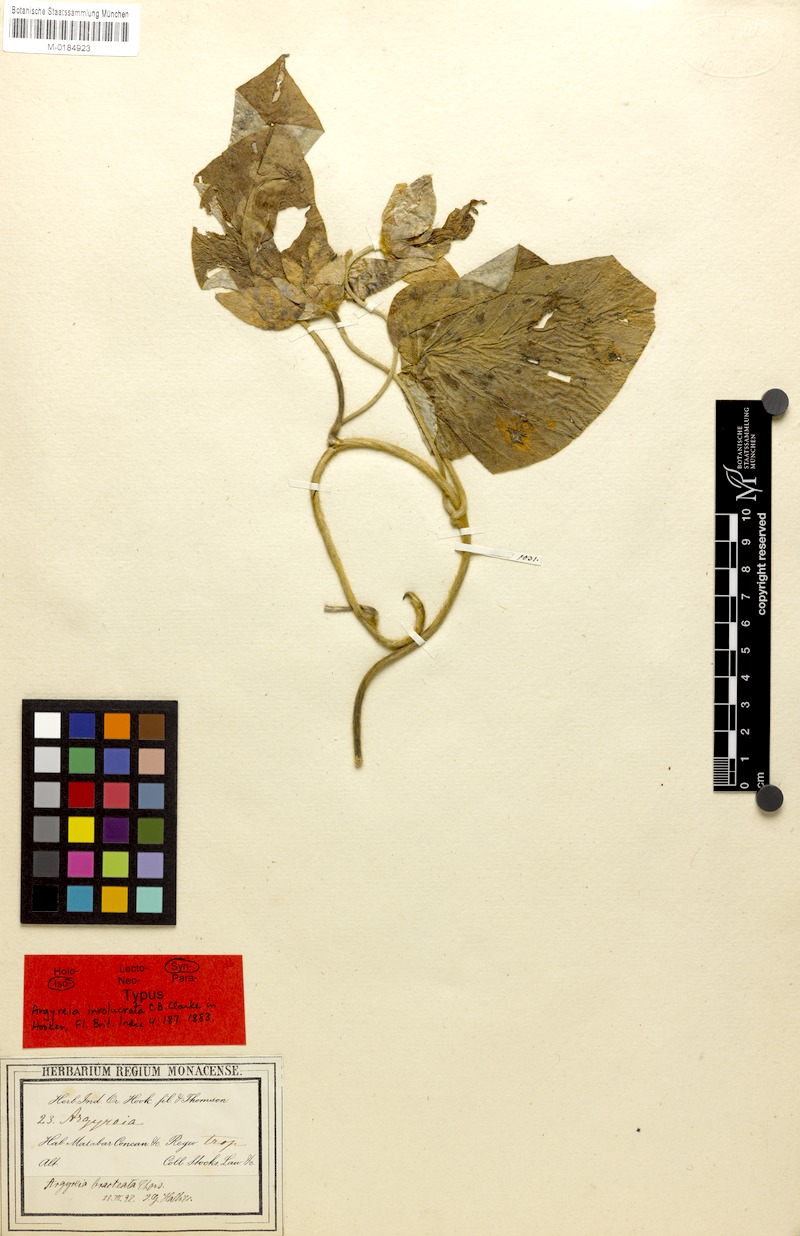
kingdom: Plantae
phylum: Tracheophyta
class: Magnoliopsida
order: Solanales
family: Convolvulaceae
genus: Argyreia
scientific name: Argyreia involucrata
